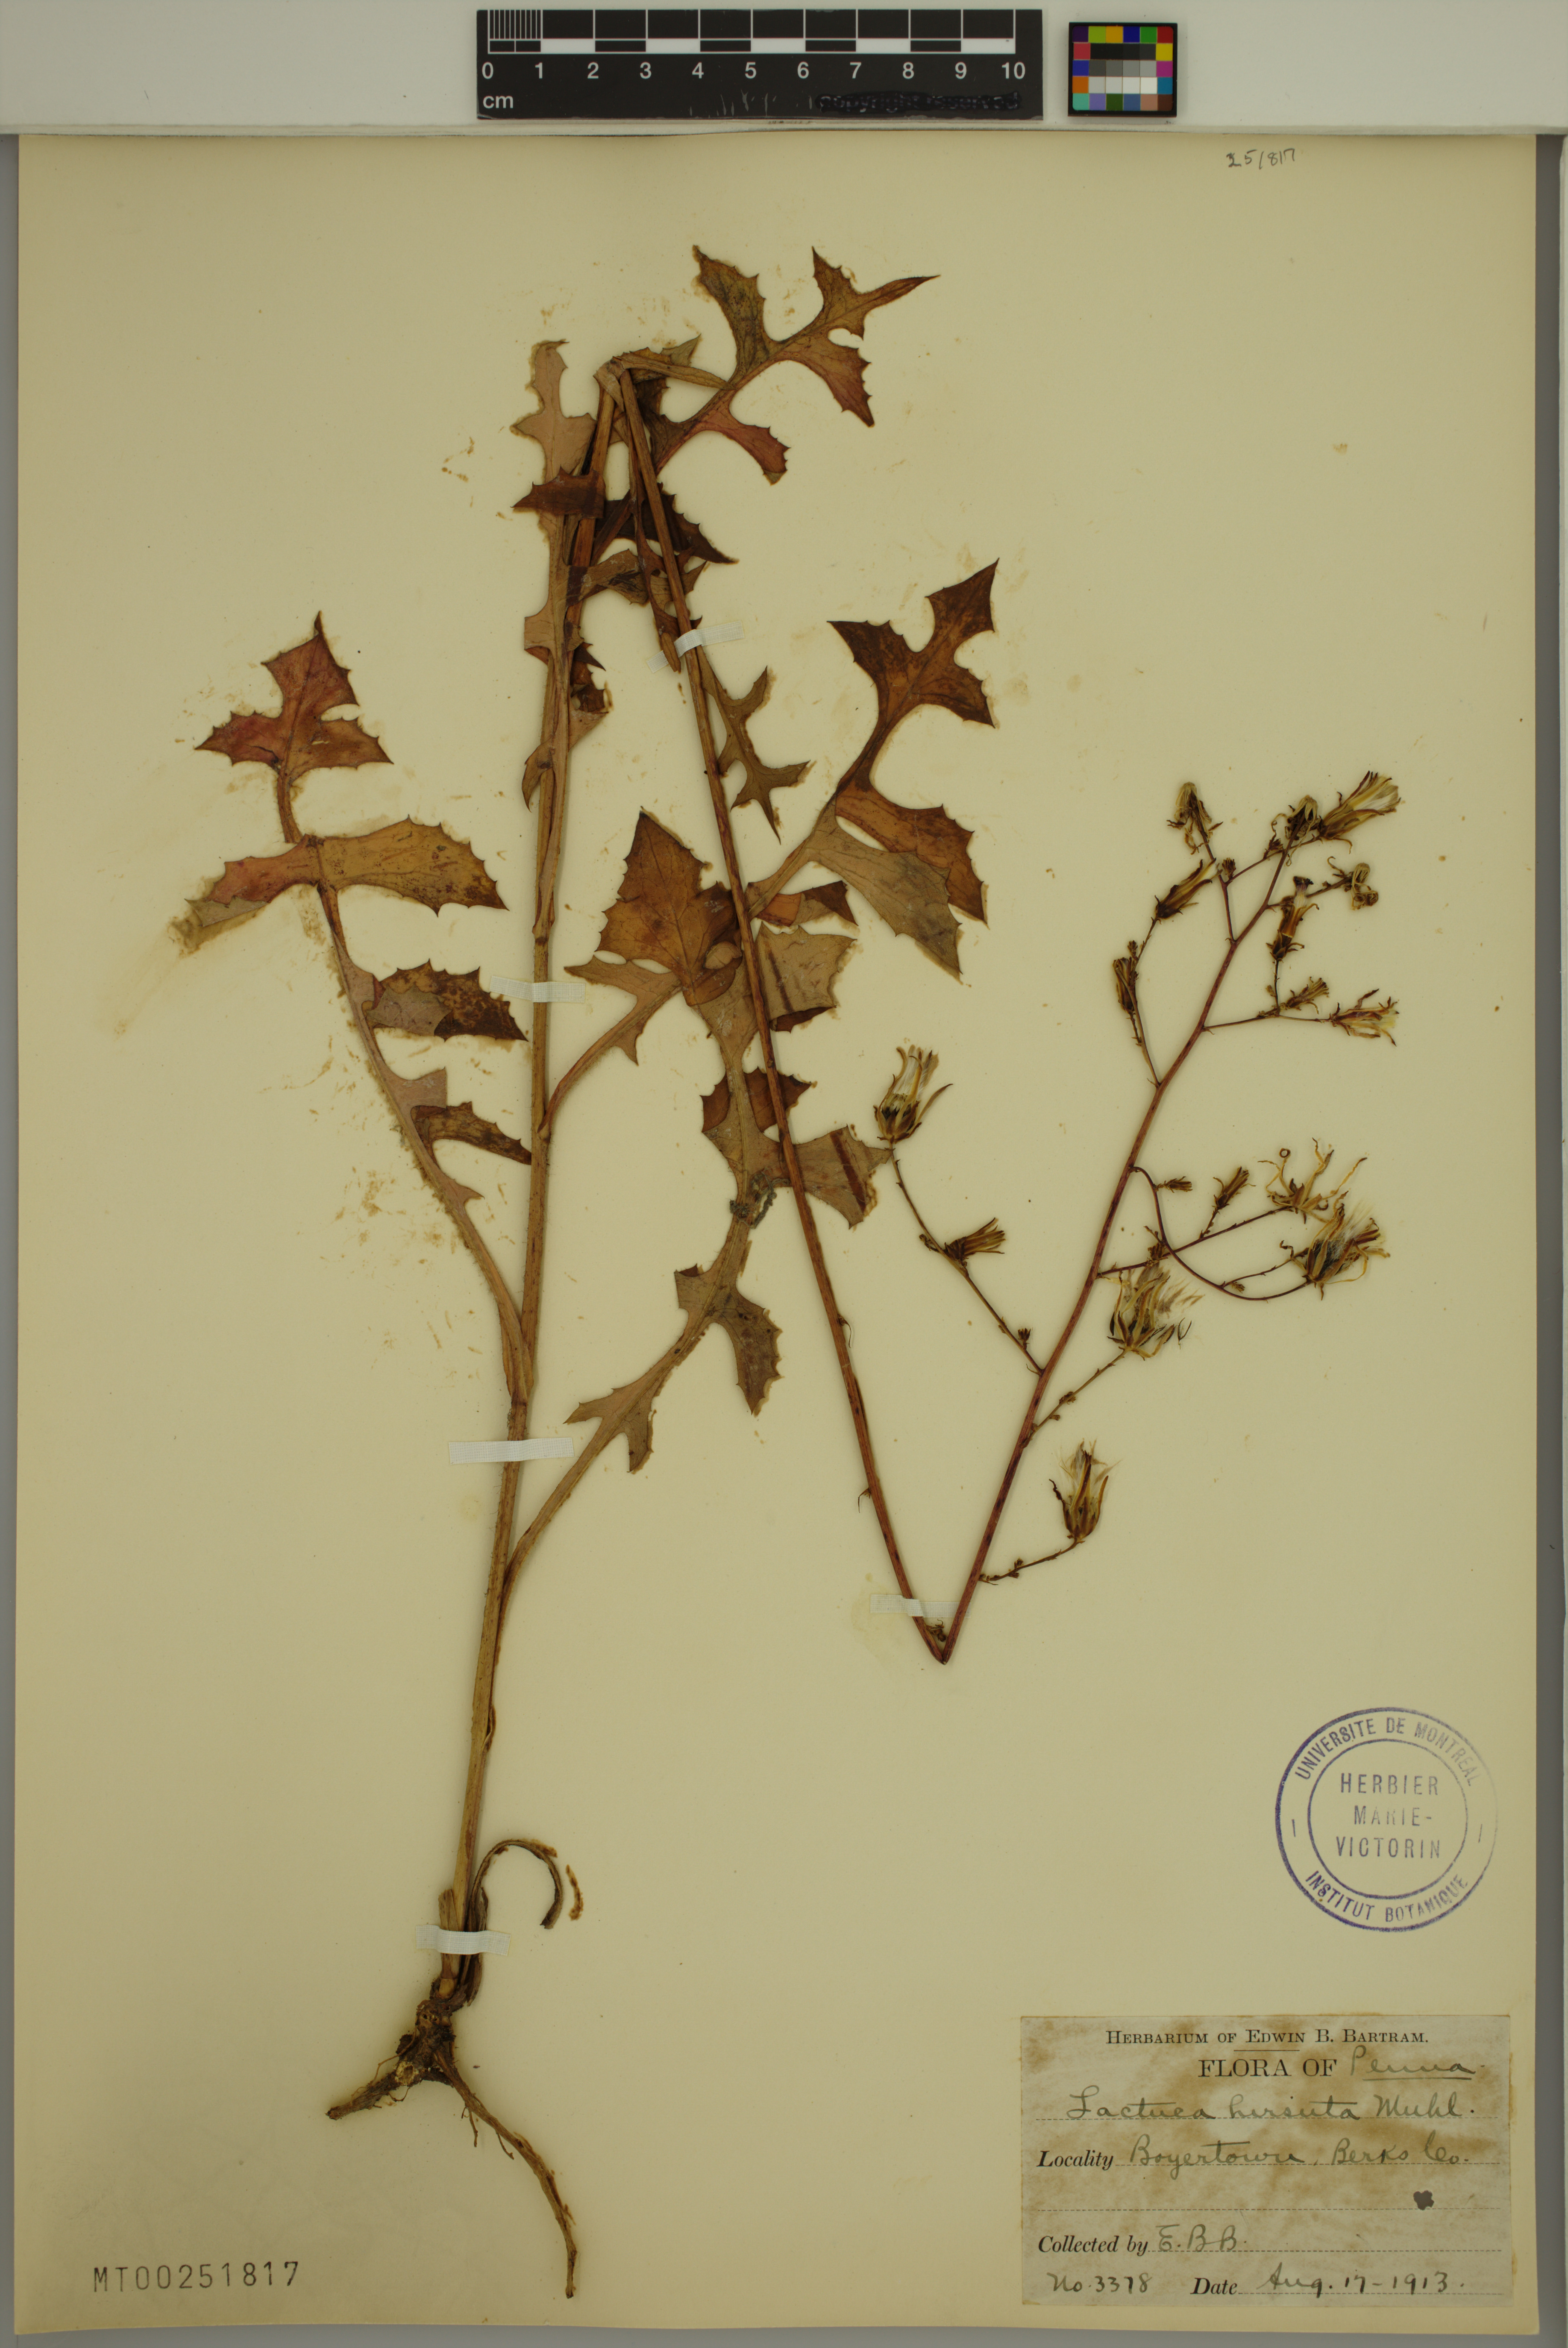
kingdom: Plantae
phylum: Tracheophyta
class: Magnoliopsida
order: Asterales
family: Asteraceae
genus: Lactuca
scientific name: Lactuca hirsuta
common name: Hairy lettuce
